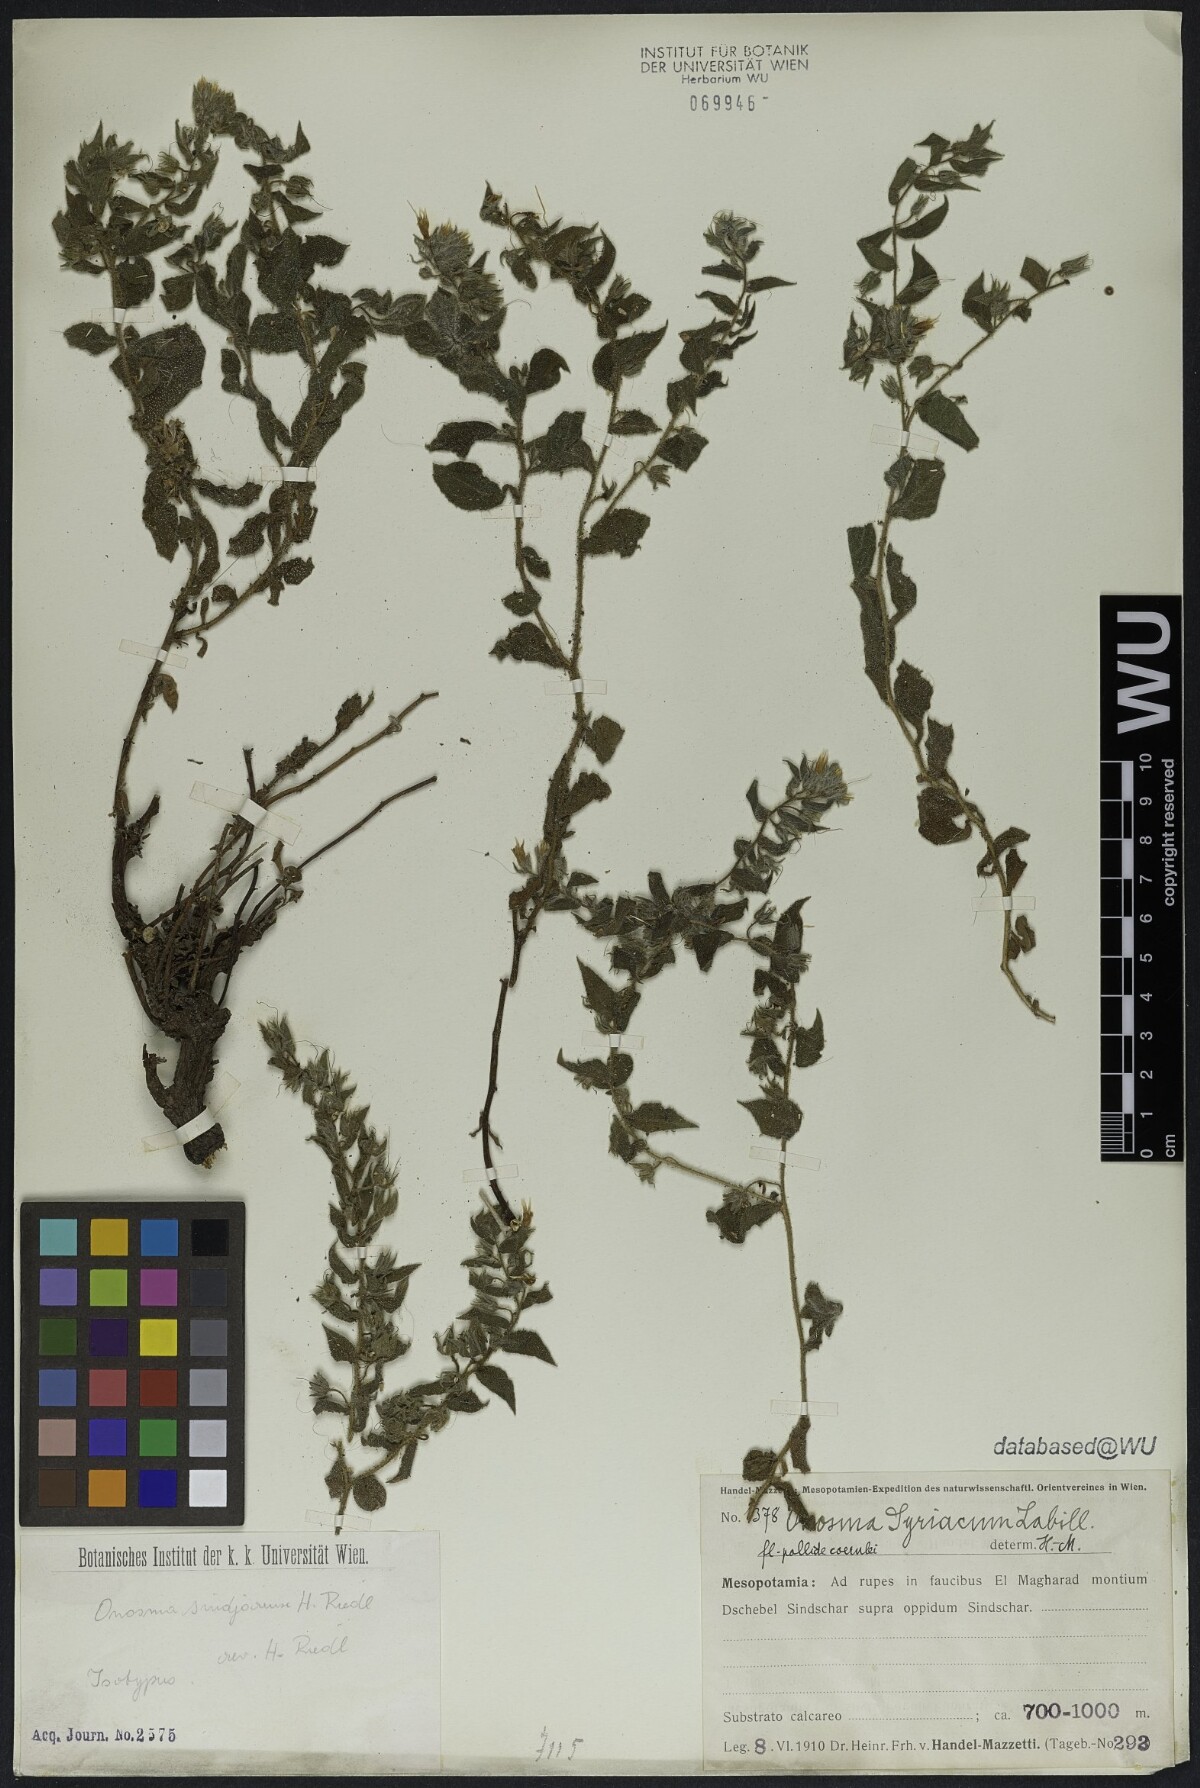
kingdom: Plantae
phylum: Tracheophyta
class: Magnoliopsida
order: Boraginales
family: Boraginaceae
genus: Podonosma
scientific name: Podonosma sindjarensis
